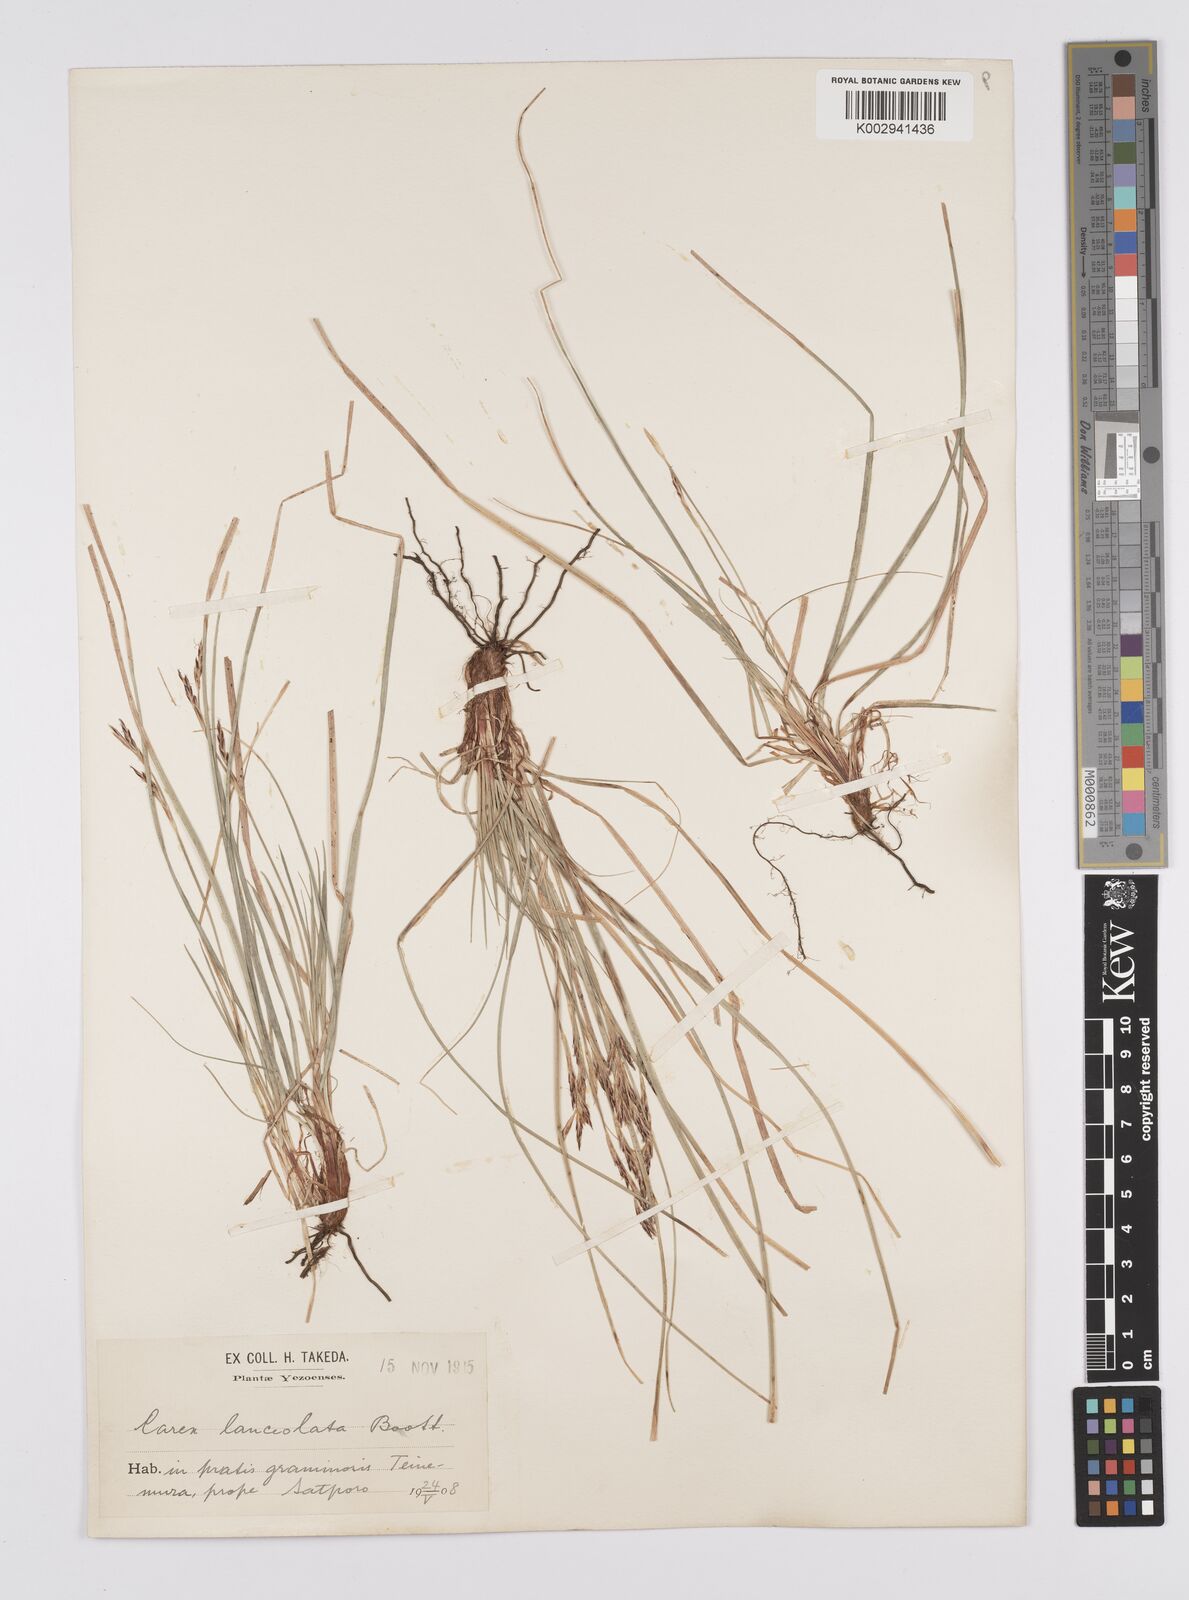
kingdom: Plantae
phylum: Tracheophyta
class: Liliopsida
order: Poales
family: Cyperaceae
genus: Carex
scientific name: Carex lanceolata
